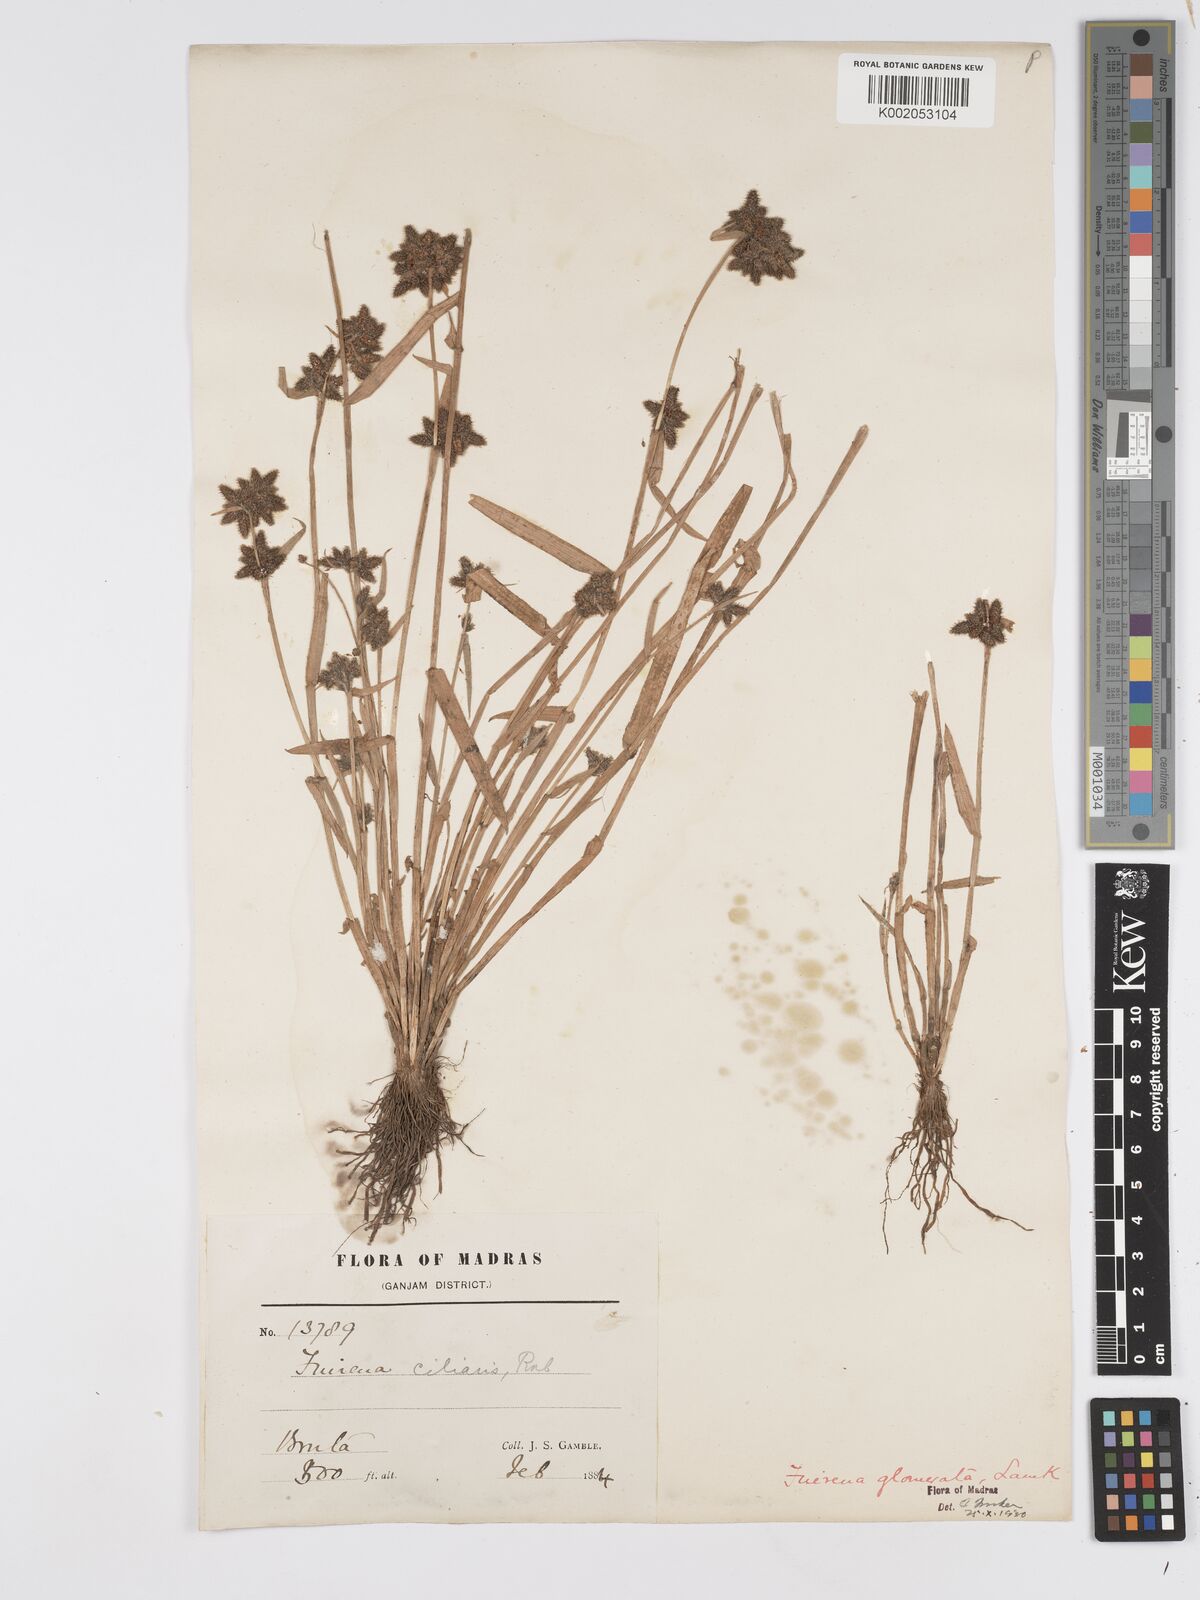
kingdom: Plantae
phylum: Tracheophyta
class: Liliopsida
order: Poales
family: Cyperaceae
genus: Fuirena
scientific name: Fuirena ciliaris
